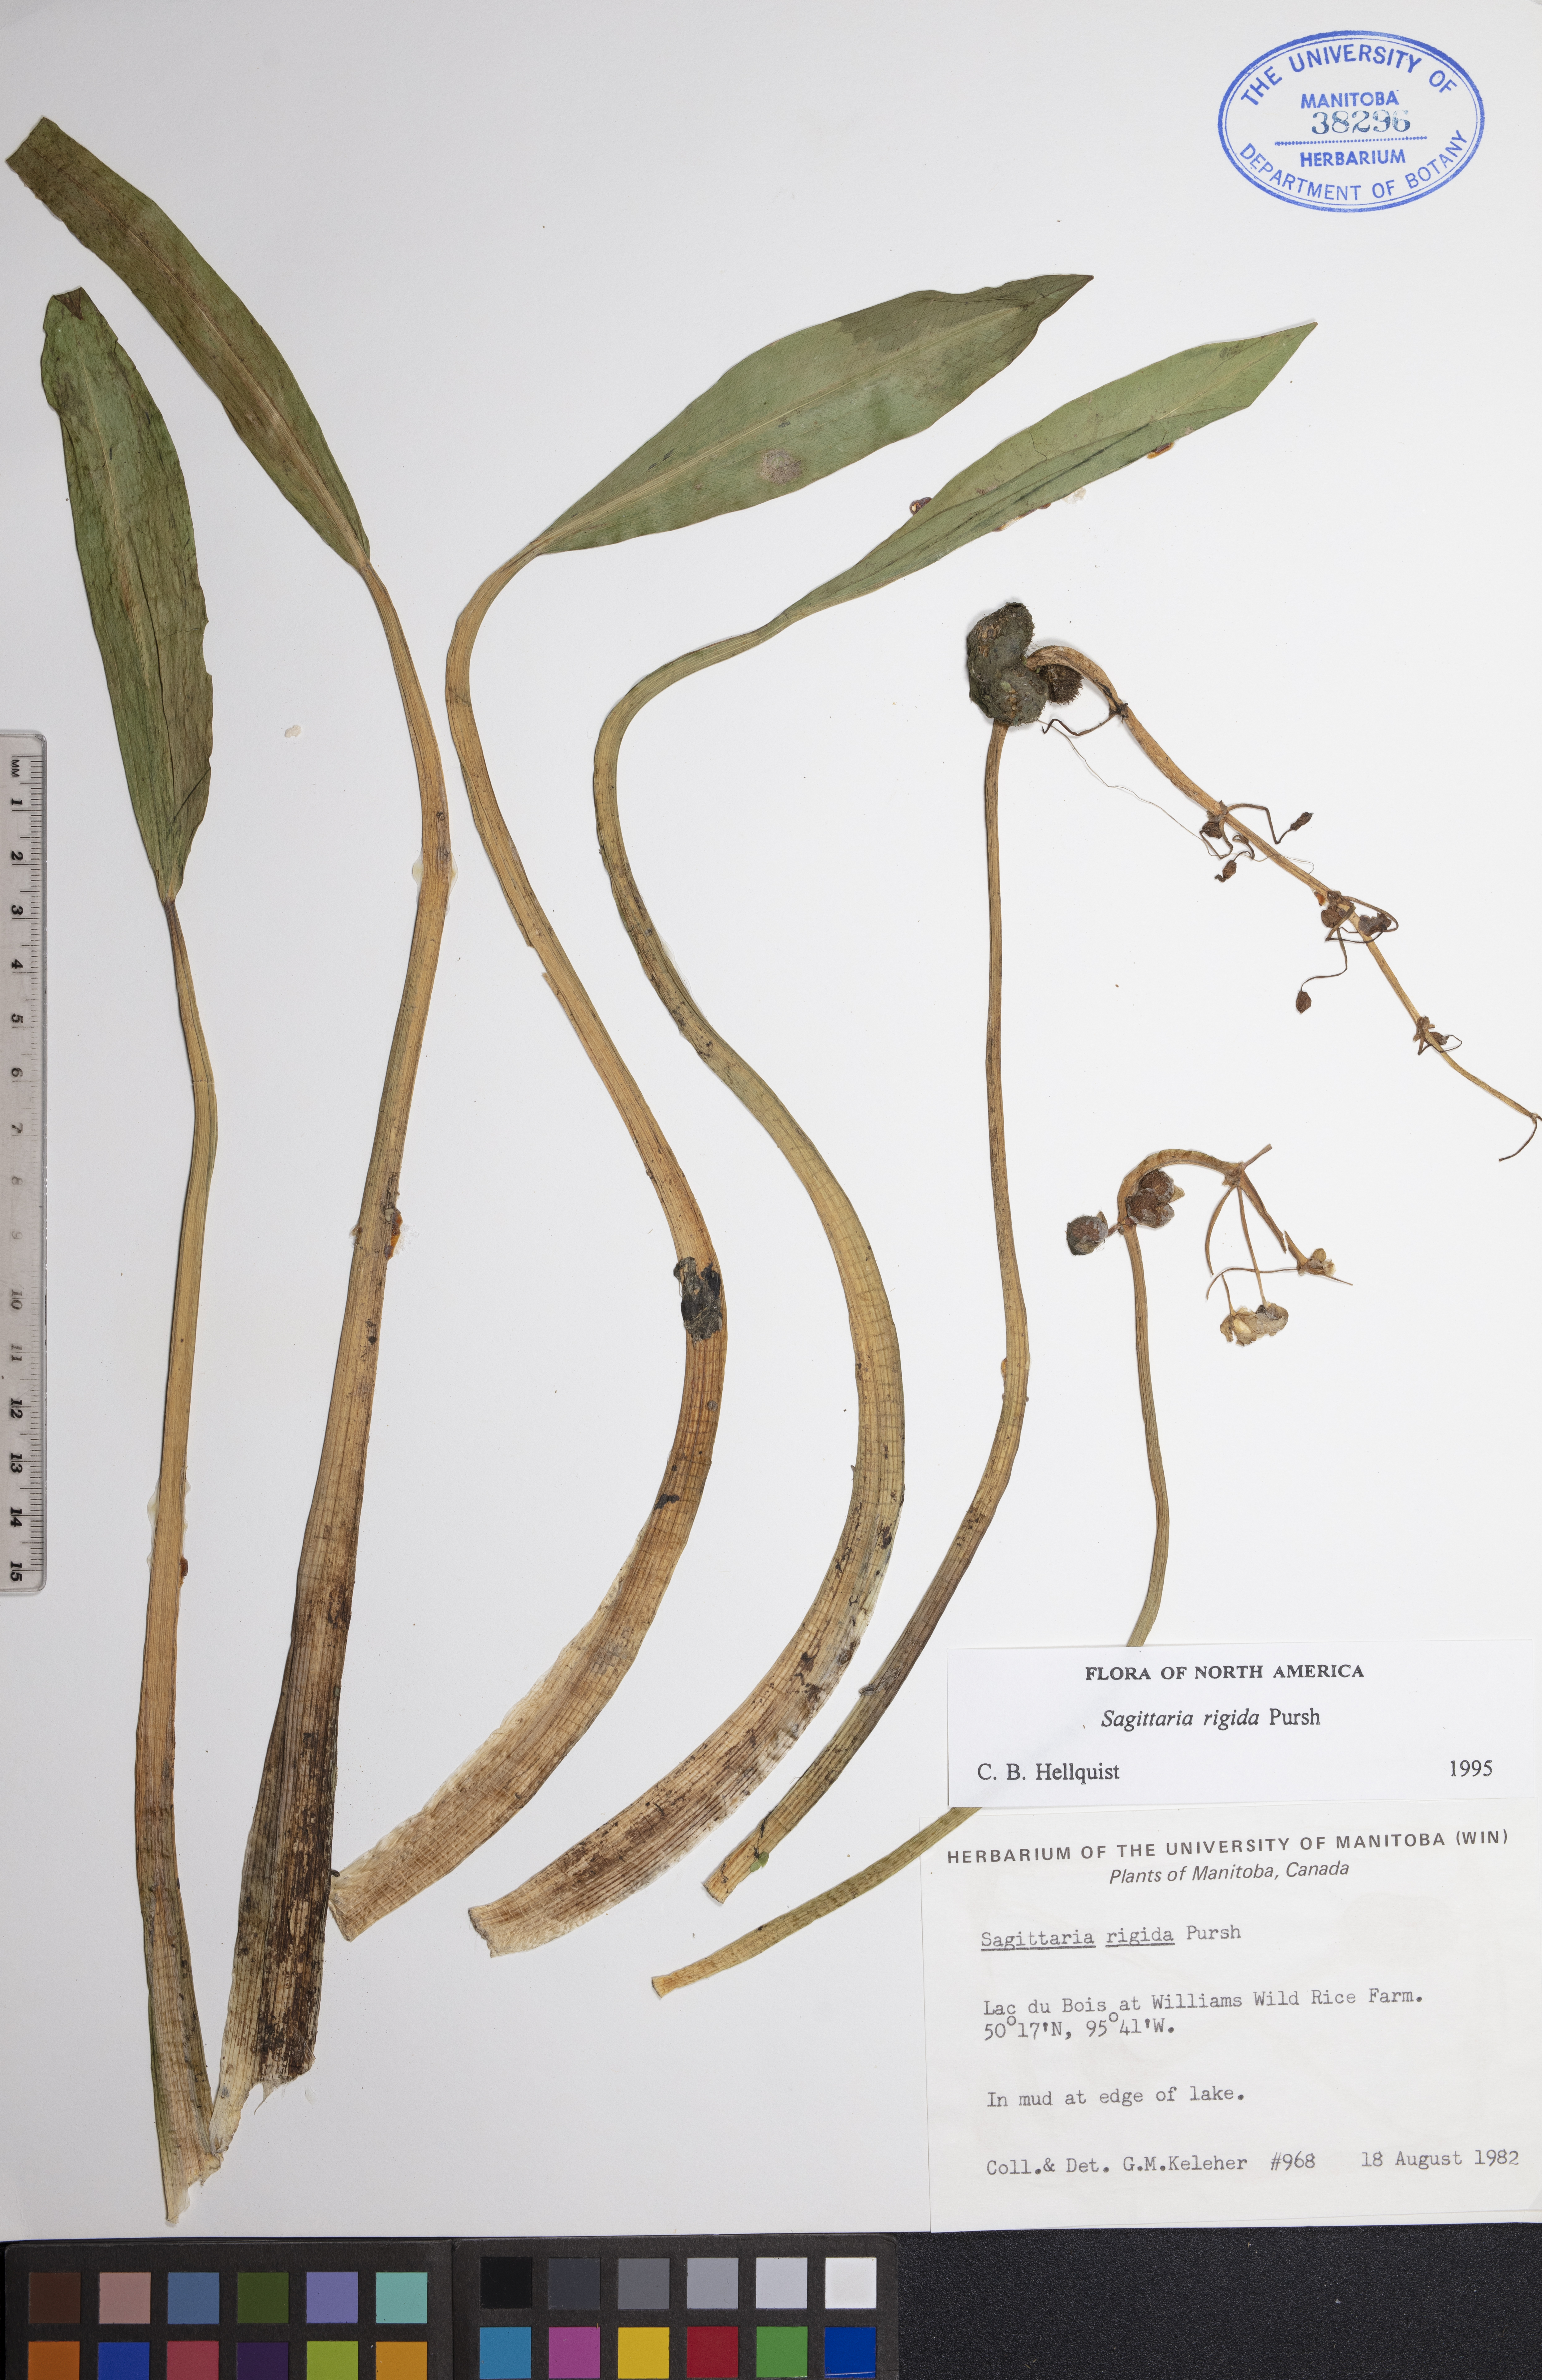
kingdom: Plantae
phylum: Tracheophyta
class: Liliopsida
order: Alismatales
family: Alismataceae
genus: Sagittaria
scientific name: Sagittaria rigida
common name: Canadian arrowhead
